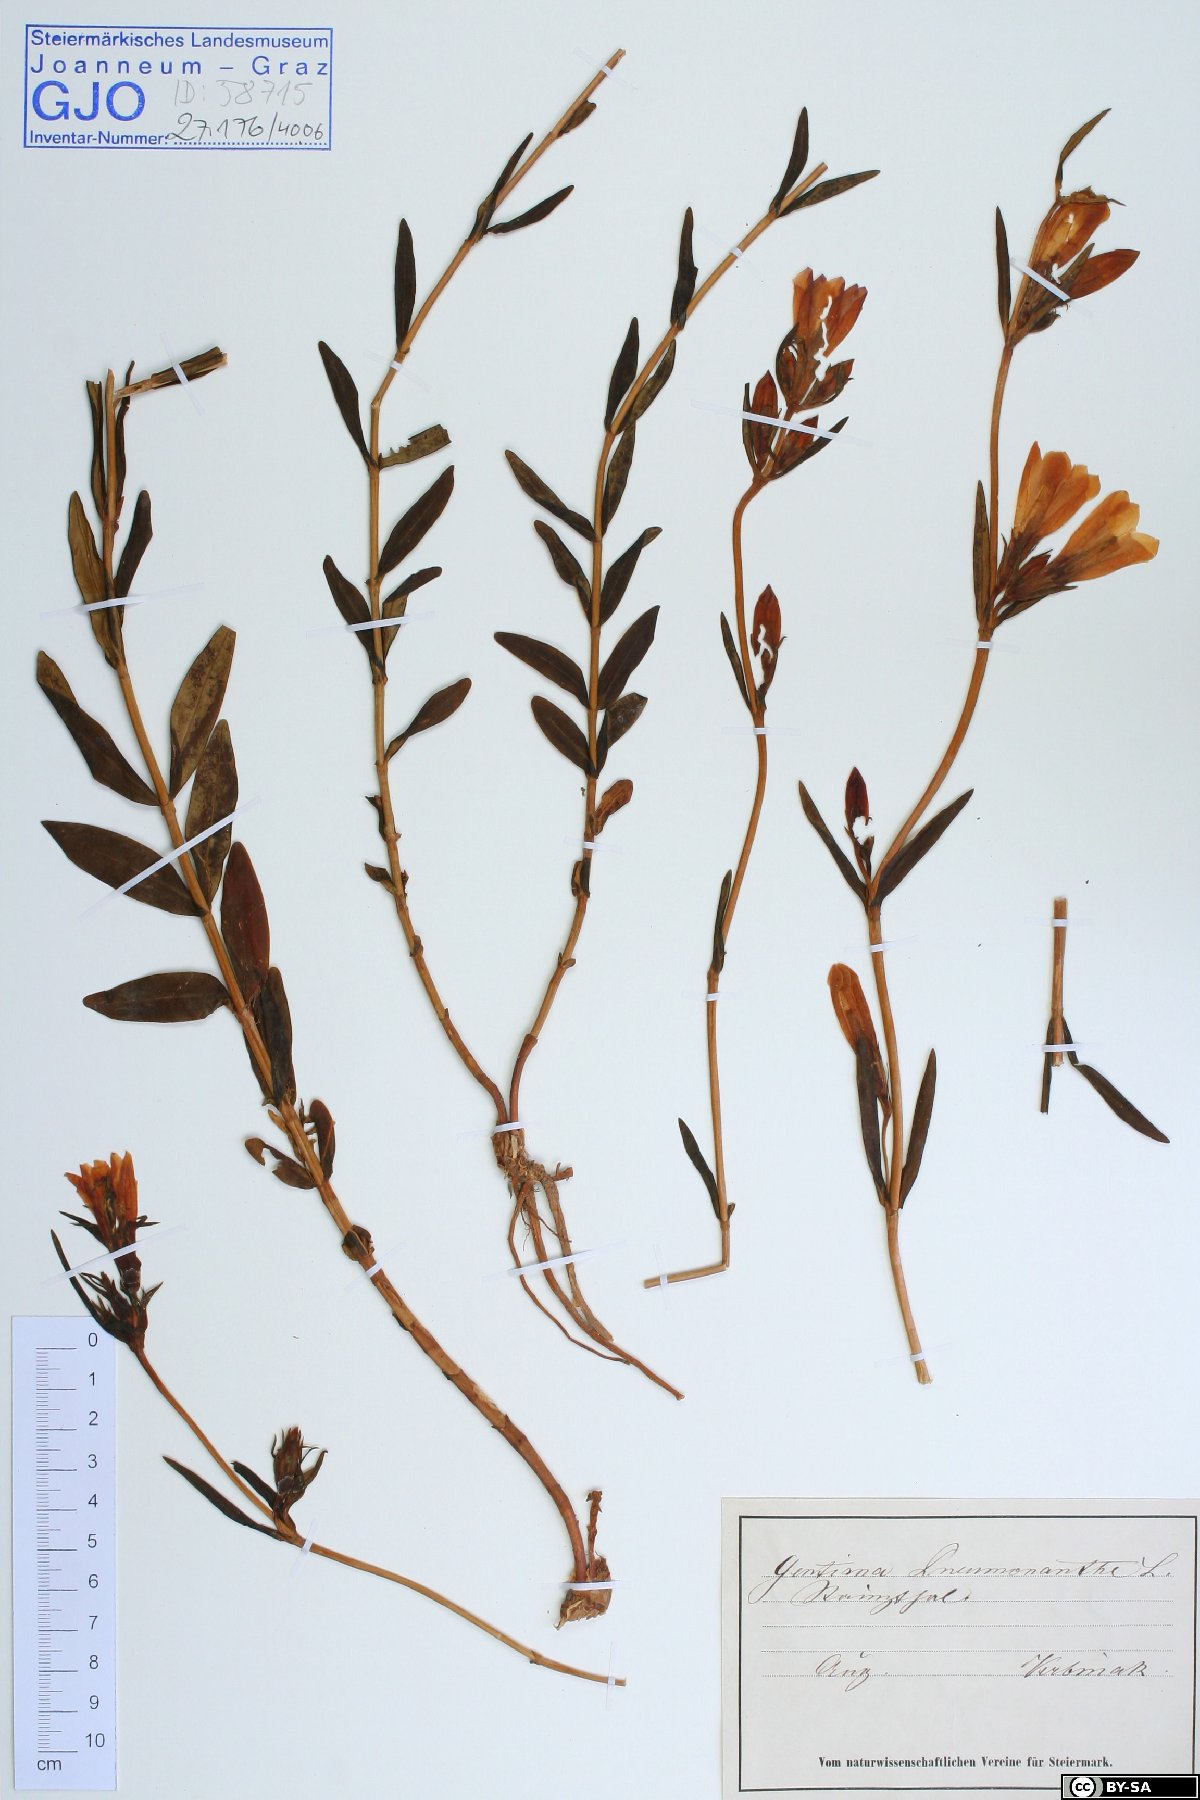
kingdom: Plantae
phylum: Tracheophyta
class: Magnoliopsida
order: Gentianales
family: Gentianaceae
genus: Gentiana
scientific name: Gentiana pneumonanthe
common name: Marsh gentian
